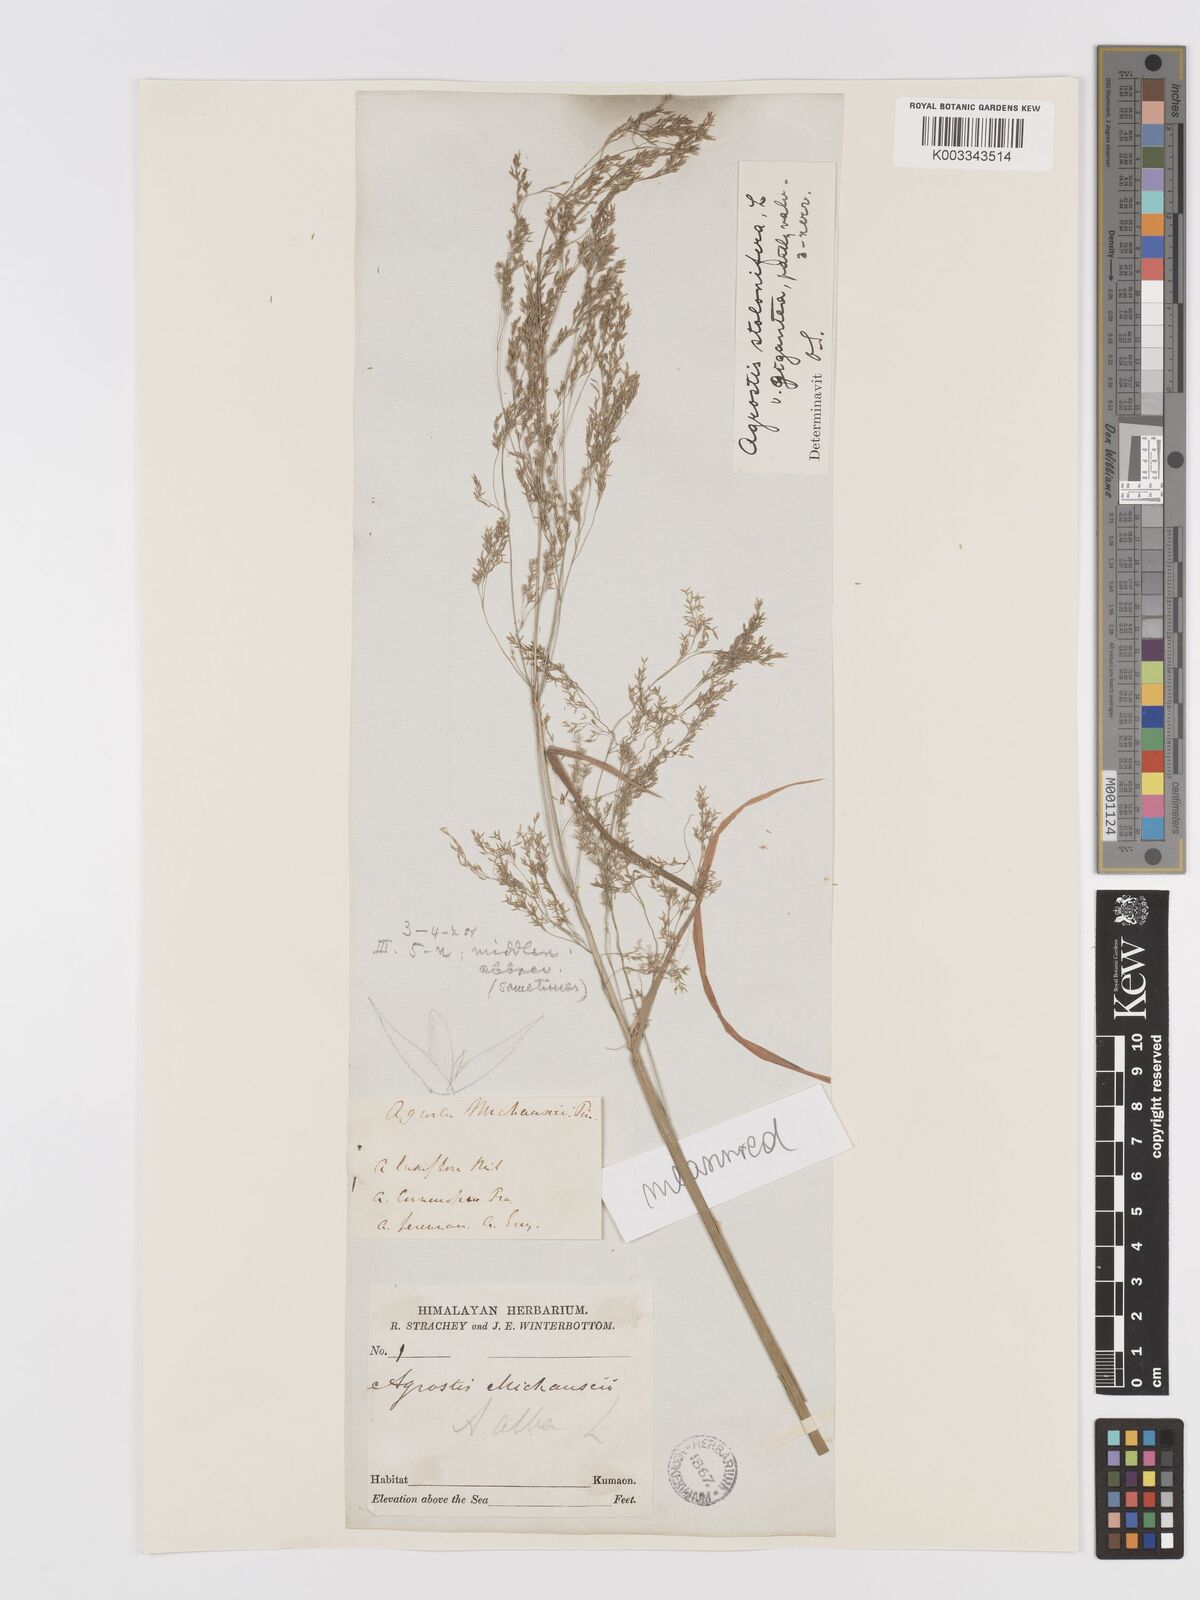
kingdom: Plantae
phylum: Tracheophyta
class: Liliopsida
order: Poales
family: Poaceae
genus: Agrostis
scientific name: Agrostis gigantea
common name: Black bent
